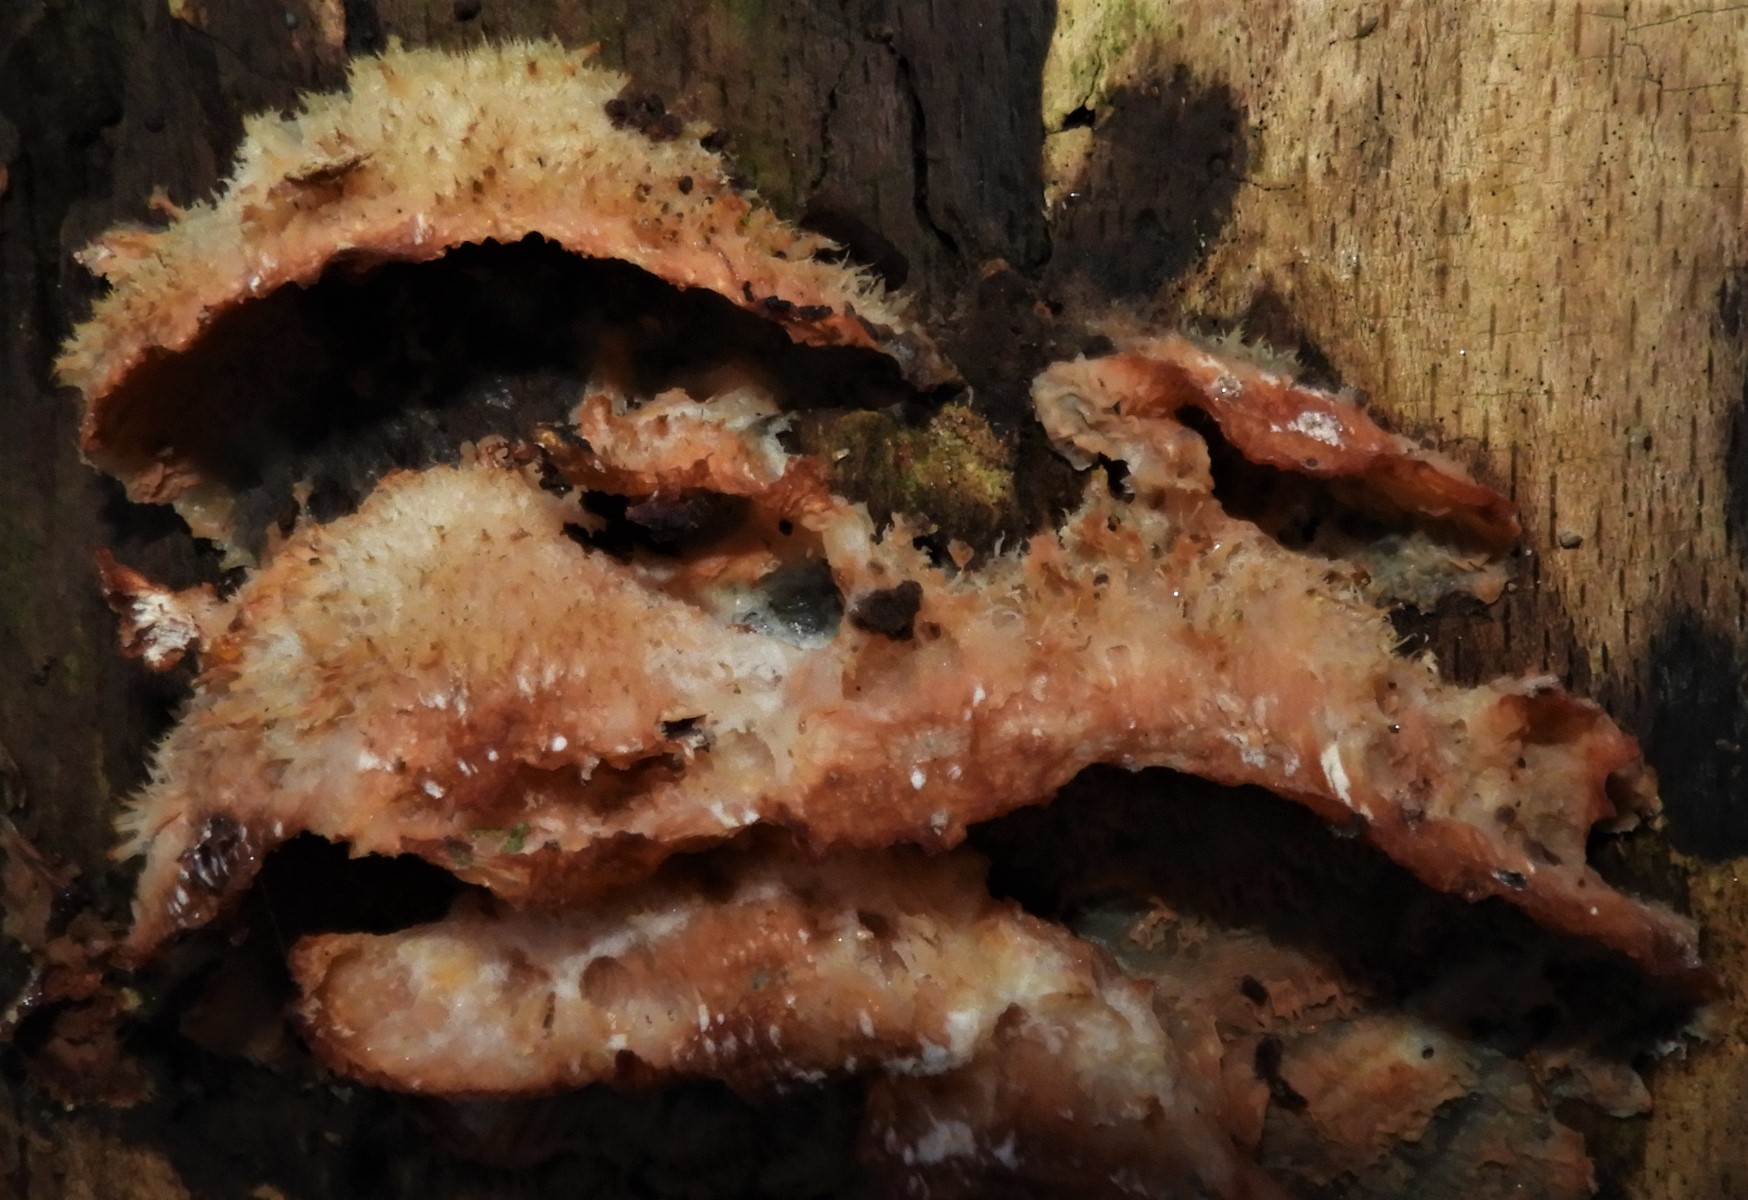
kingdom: Fungi
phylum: Basidiomycota
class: Agaricomycetes
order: Polyporales
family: Meruliaceae
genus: Phlebia
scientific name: Phlebia tremellosa
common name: bævrende åresvamp
